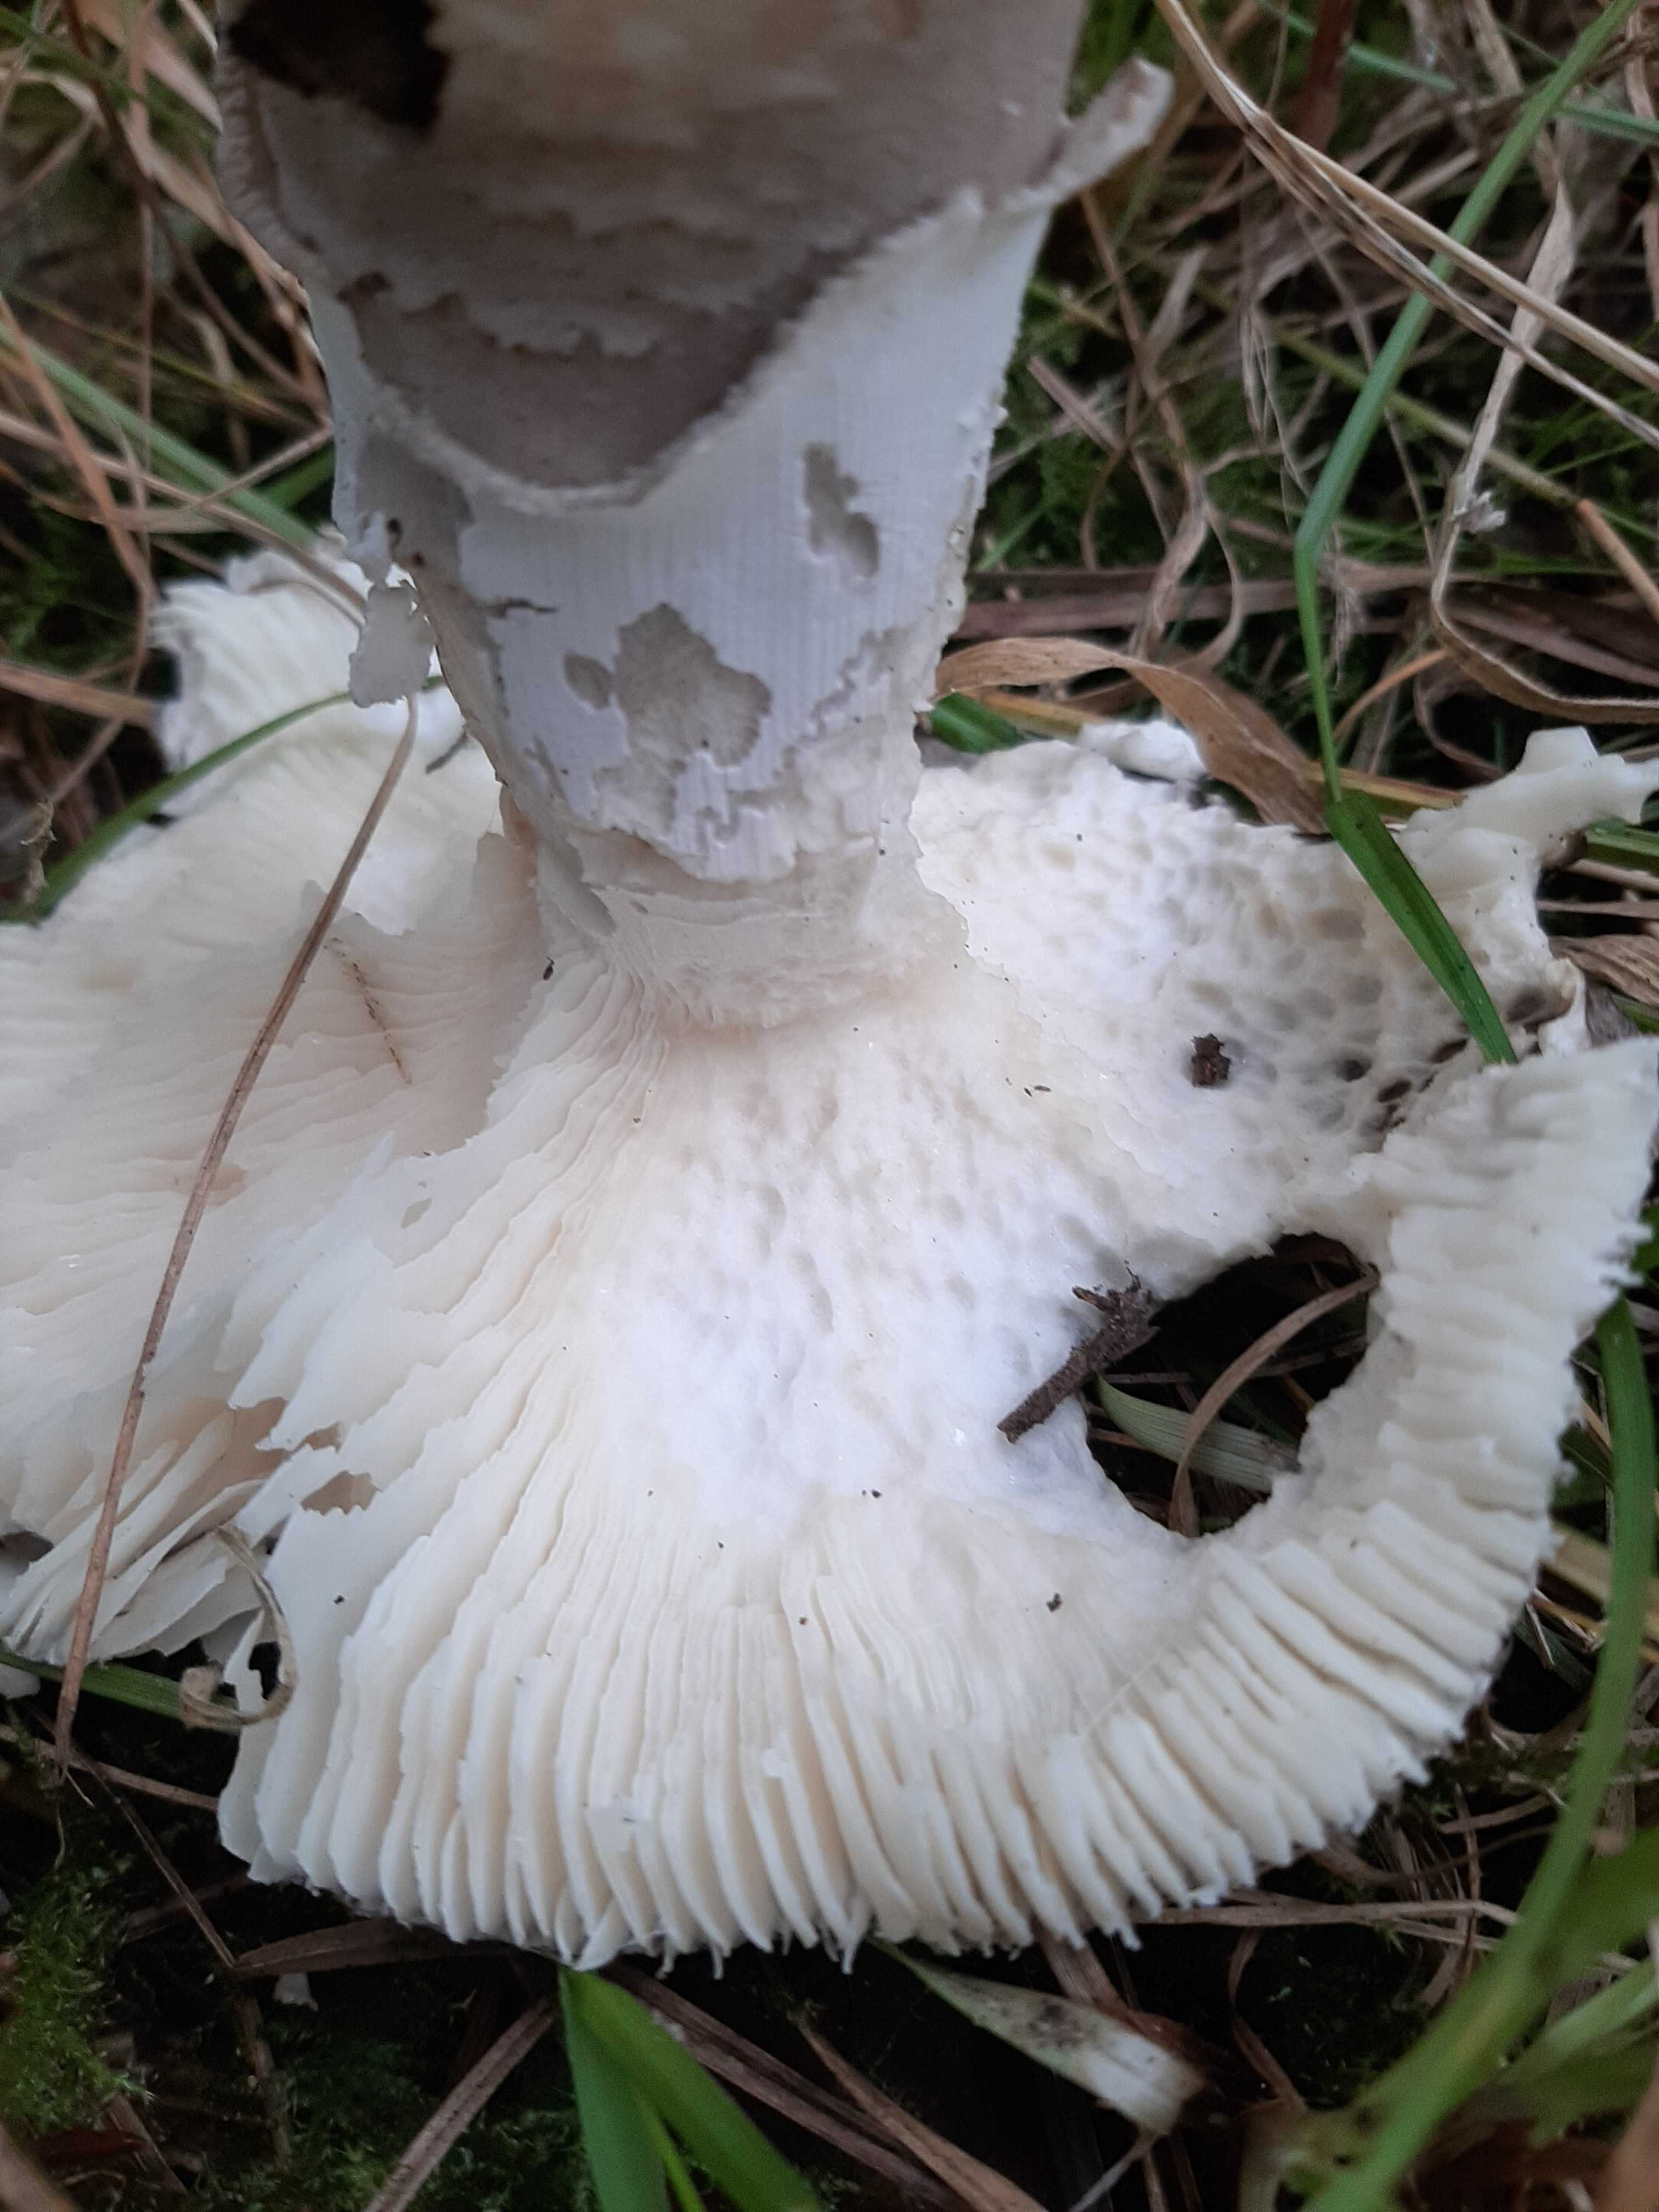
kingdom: Fungi
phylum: Basidiomycota
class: Agaricomycetes
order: Agaricales
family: Amanitaceae
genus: Amanita
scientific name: Amanita
